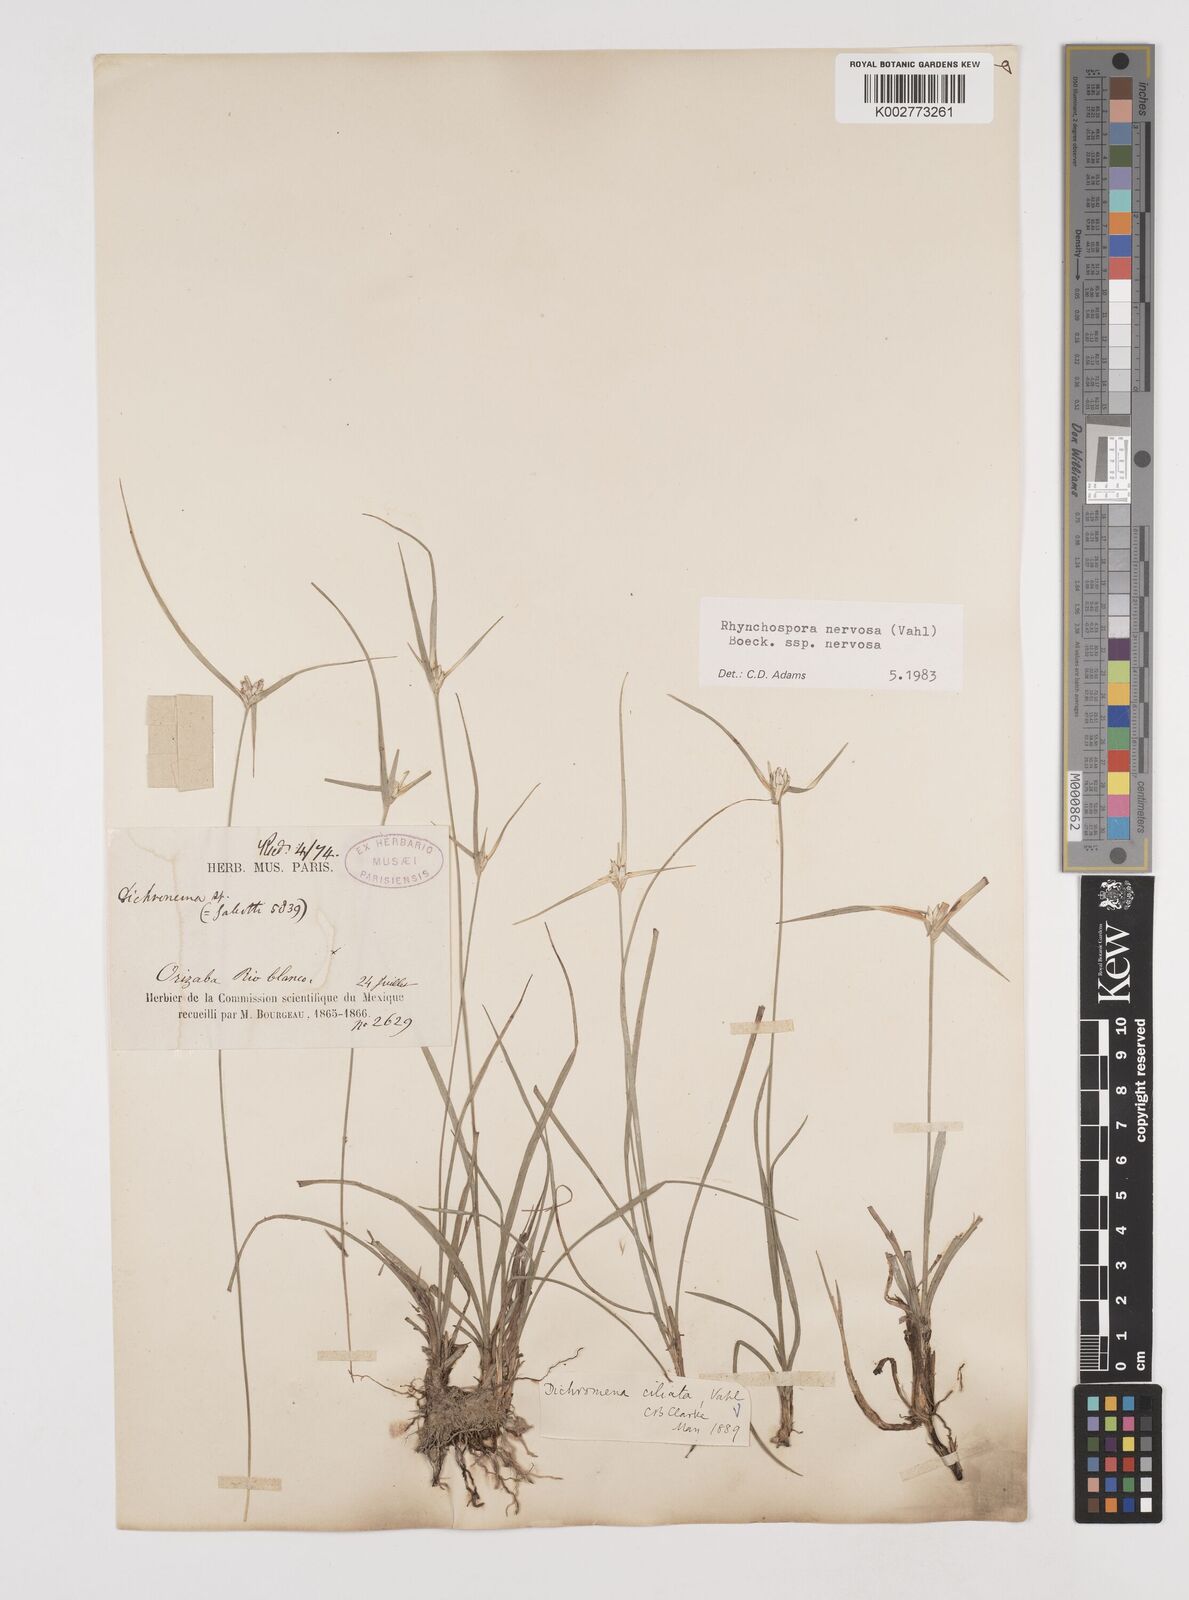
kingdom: Plantae
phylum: Tracheophyta
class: Liliopsida
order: Poales
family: Cyperaceae
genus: Rhynchospora
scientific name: Rhynchospora nervosa
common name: Star sedge
